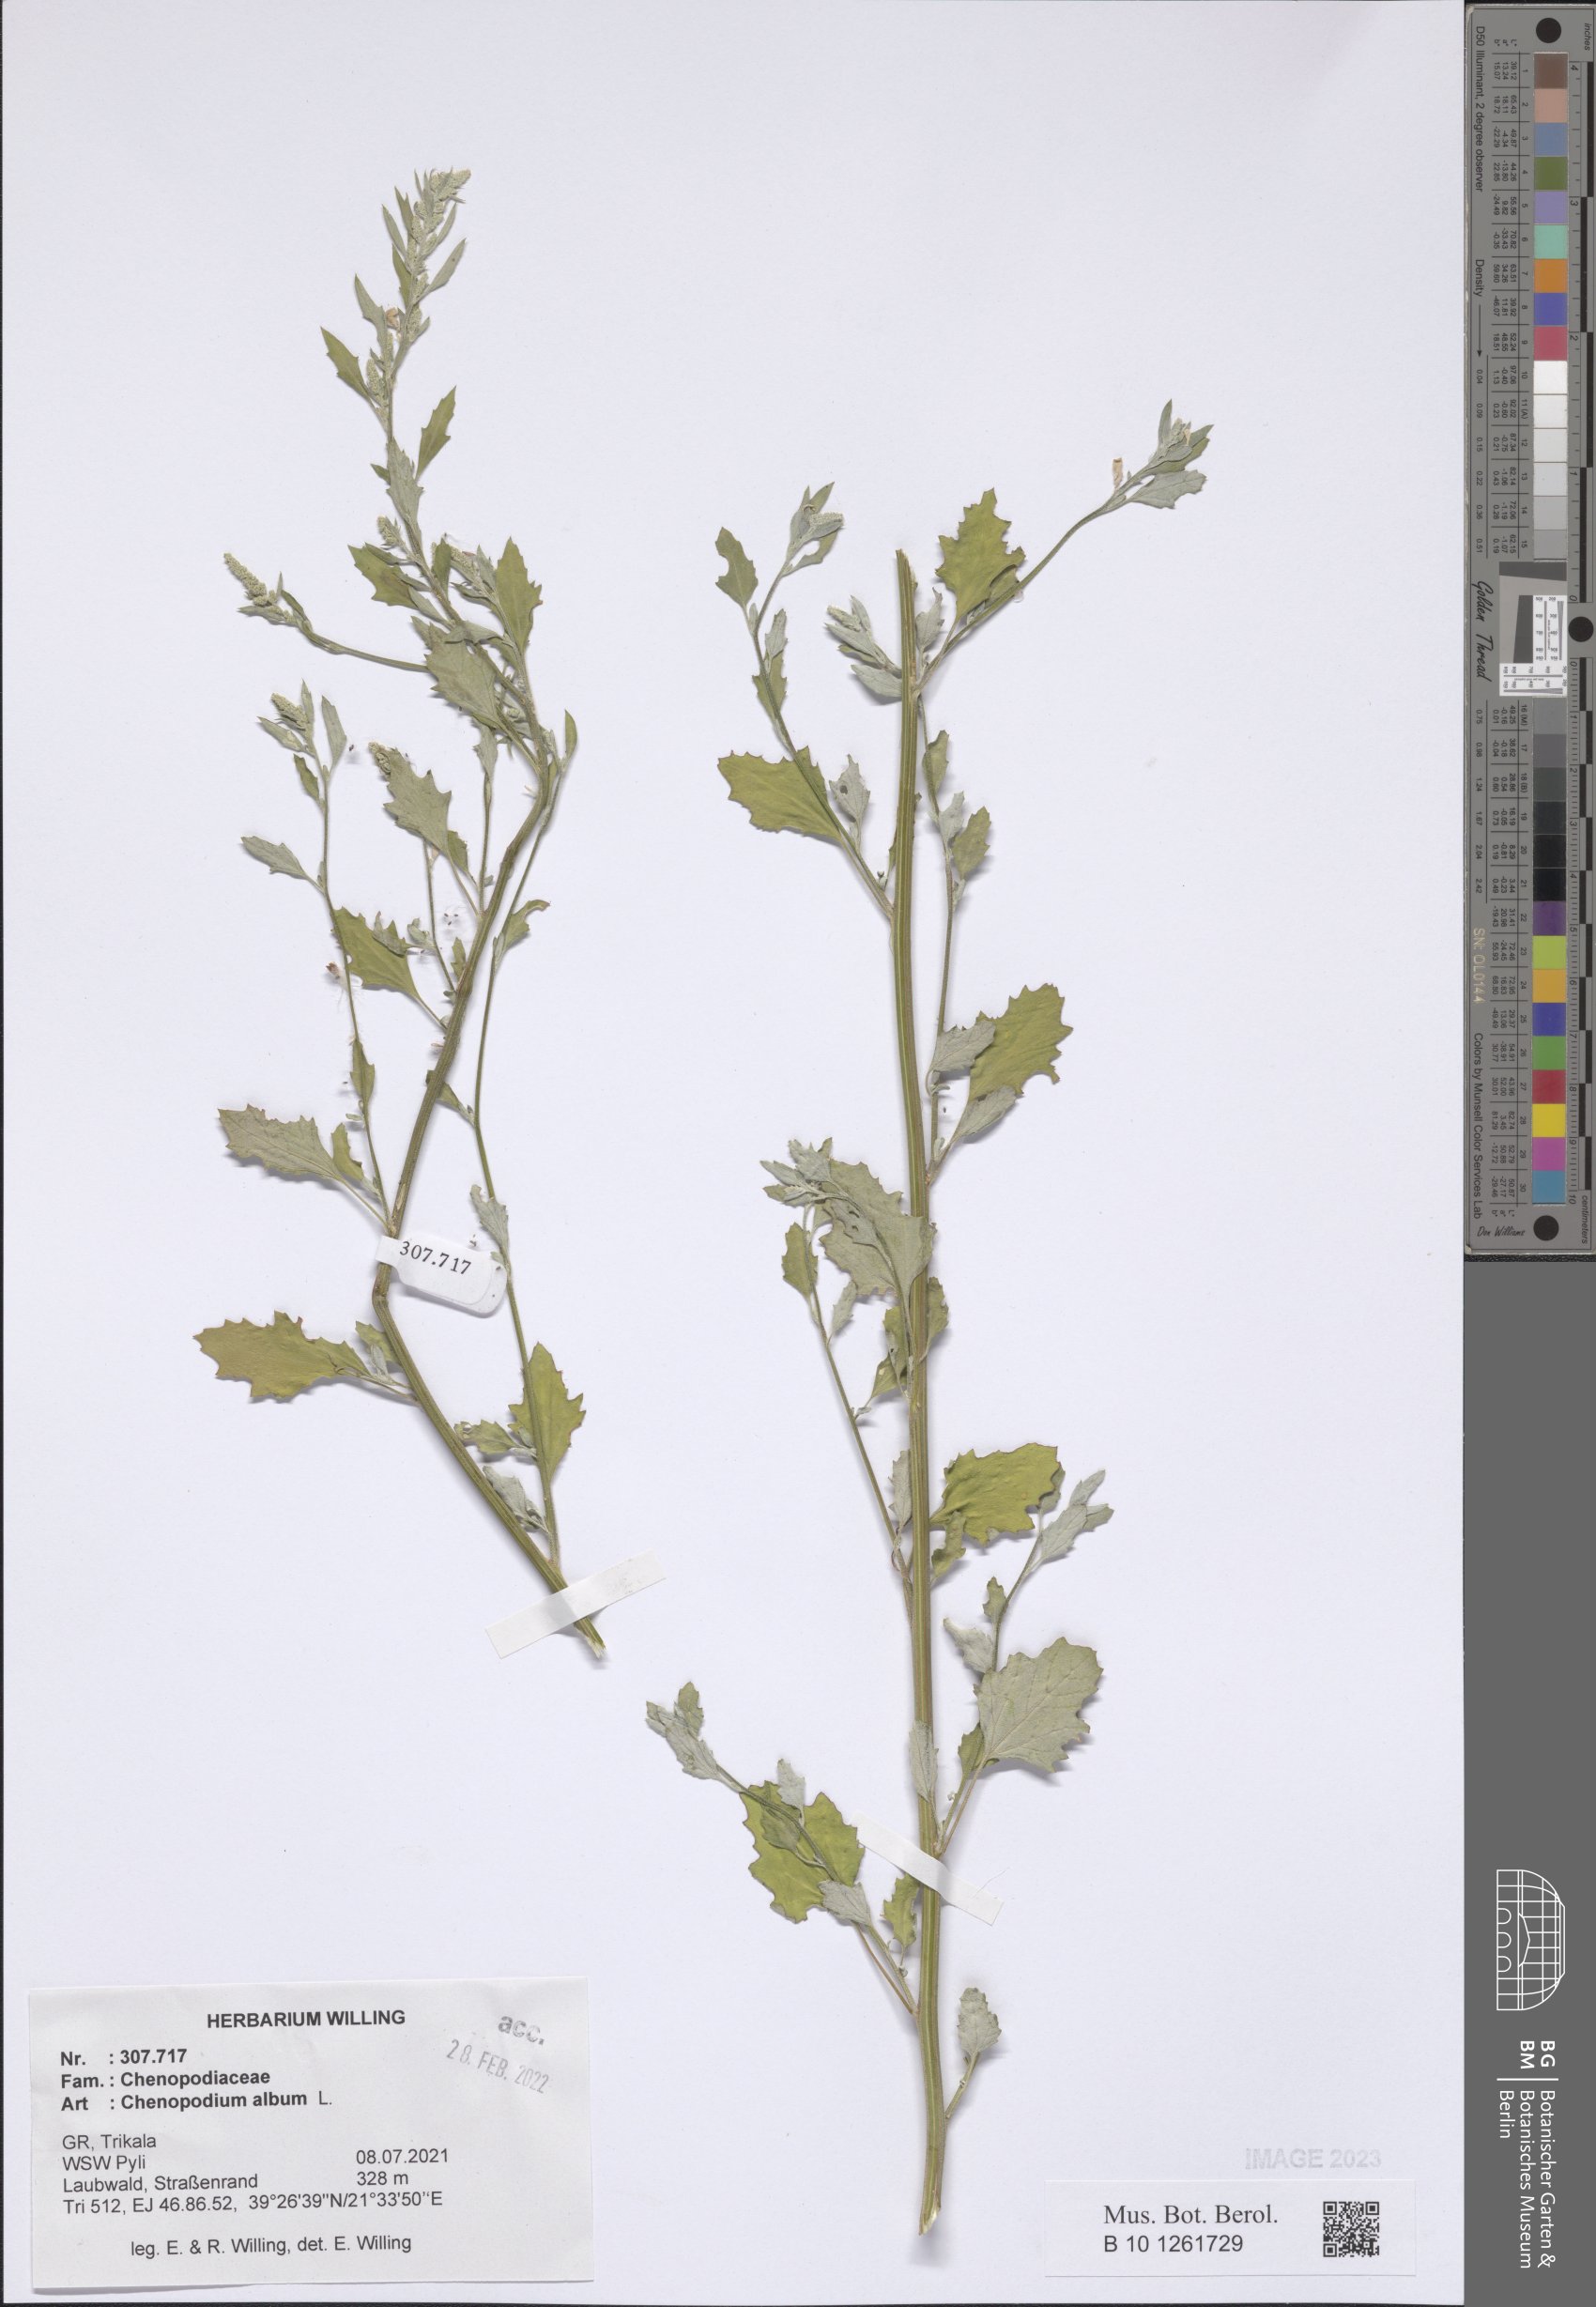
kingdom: Plantae
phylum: Tracheophyta
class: Magnoliopsida
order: Caryophyllales
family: Amaranthaceae
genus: Chenopodium
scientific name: Chenopodium album
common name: Fat-hen
